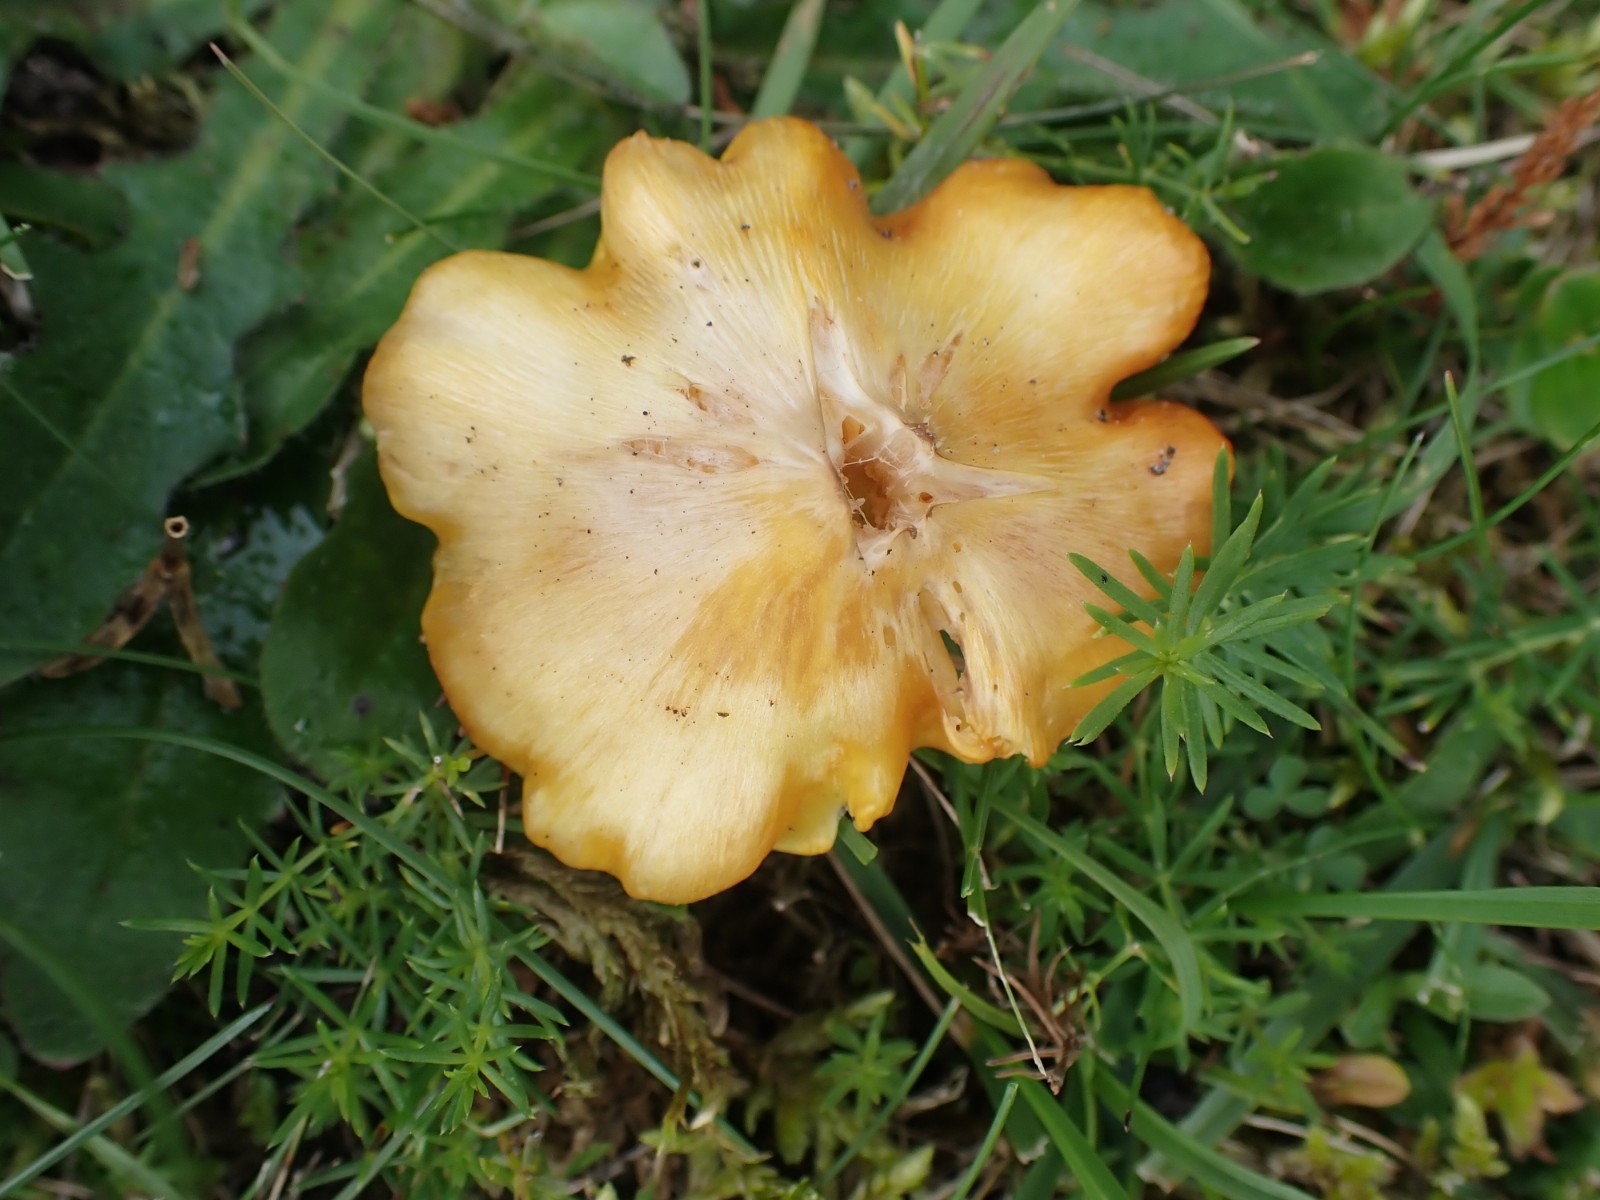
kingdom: Fungi
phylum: Basidiomycota
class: Agaricomycetes
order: Agaricales
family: Hygrophoraceae
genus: Hygrocybe
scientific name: Hygrocybe acutoconica
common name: spidspuklet vokshat
